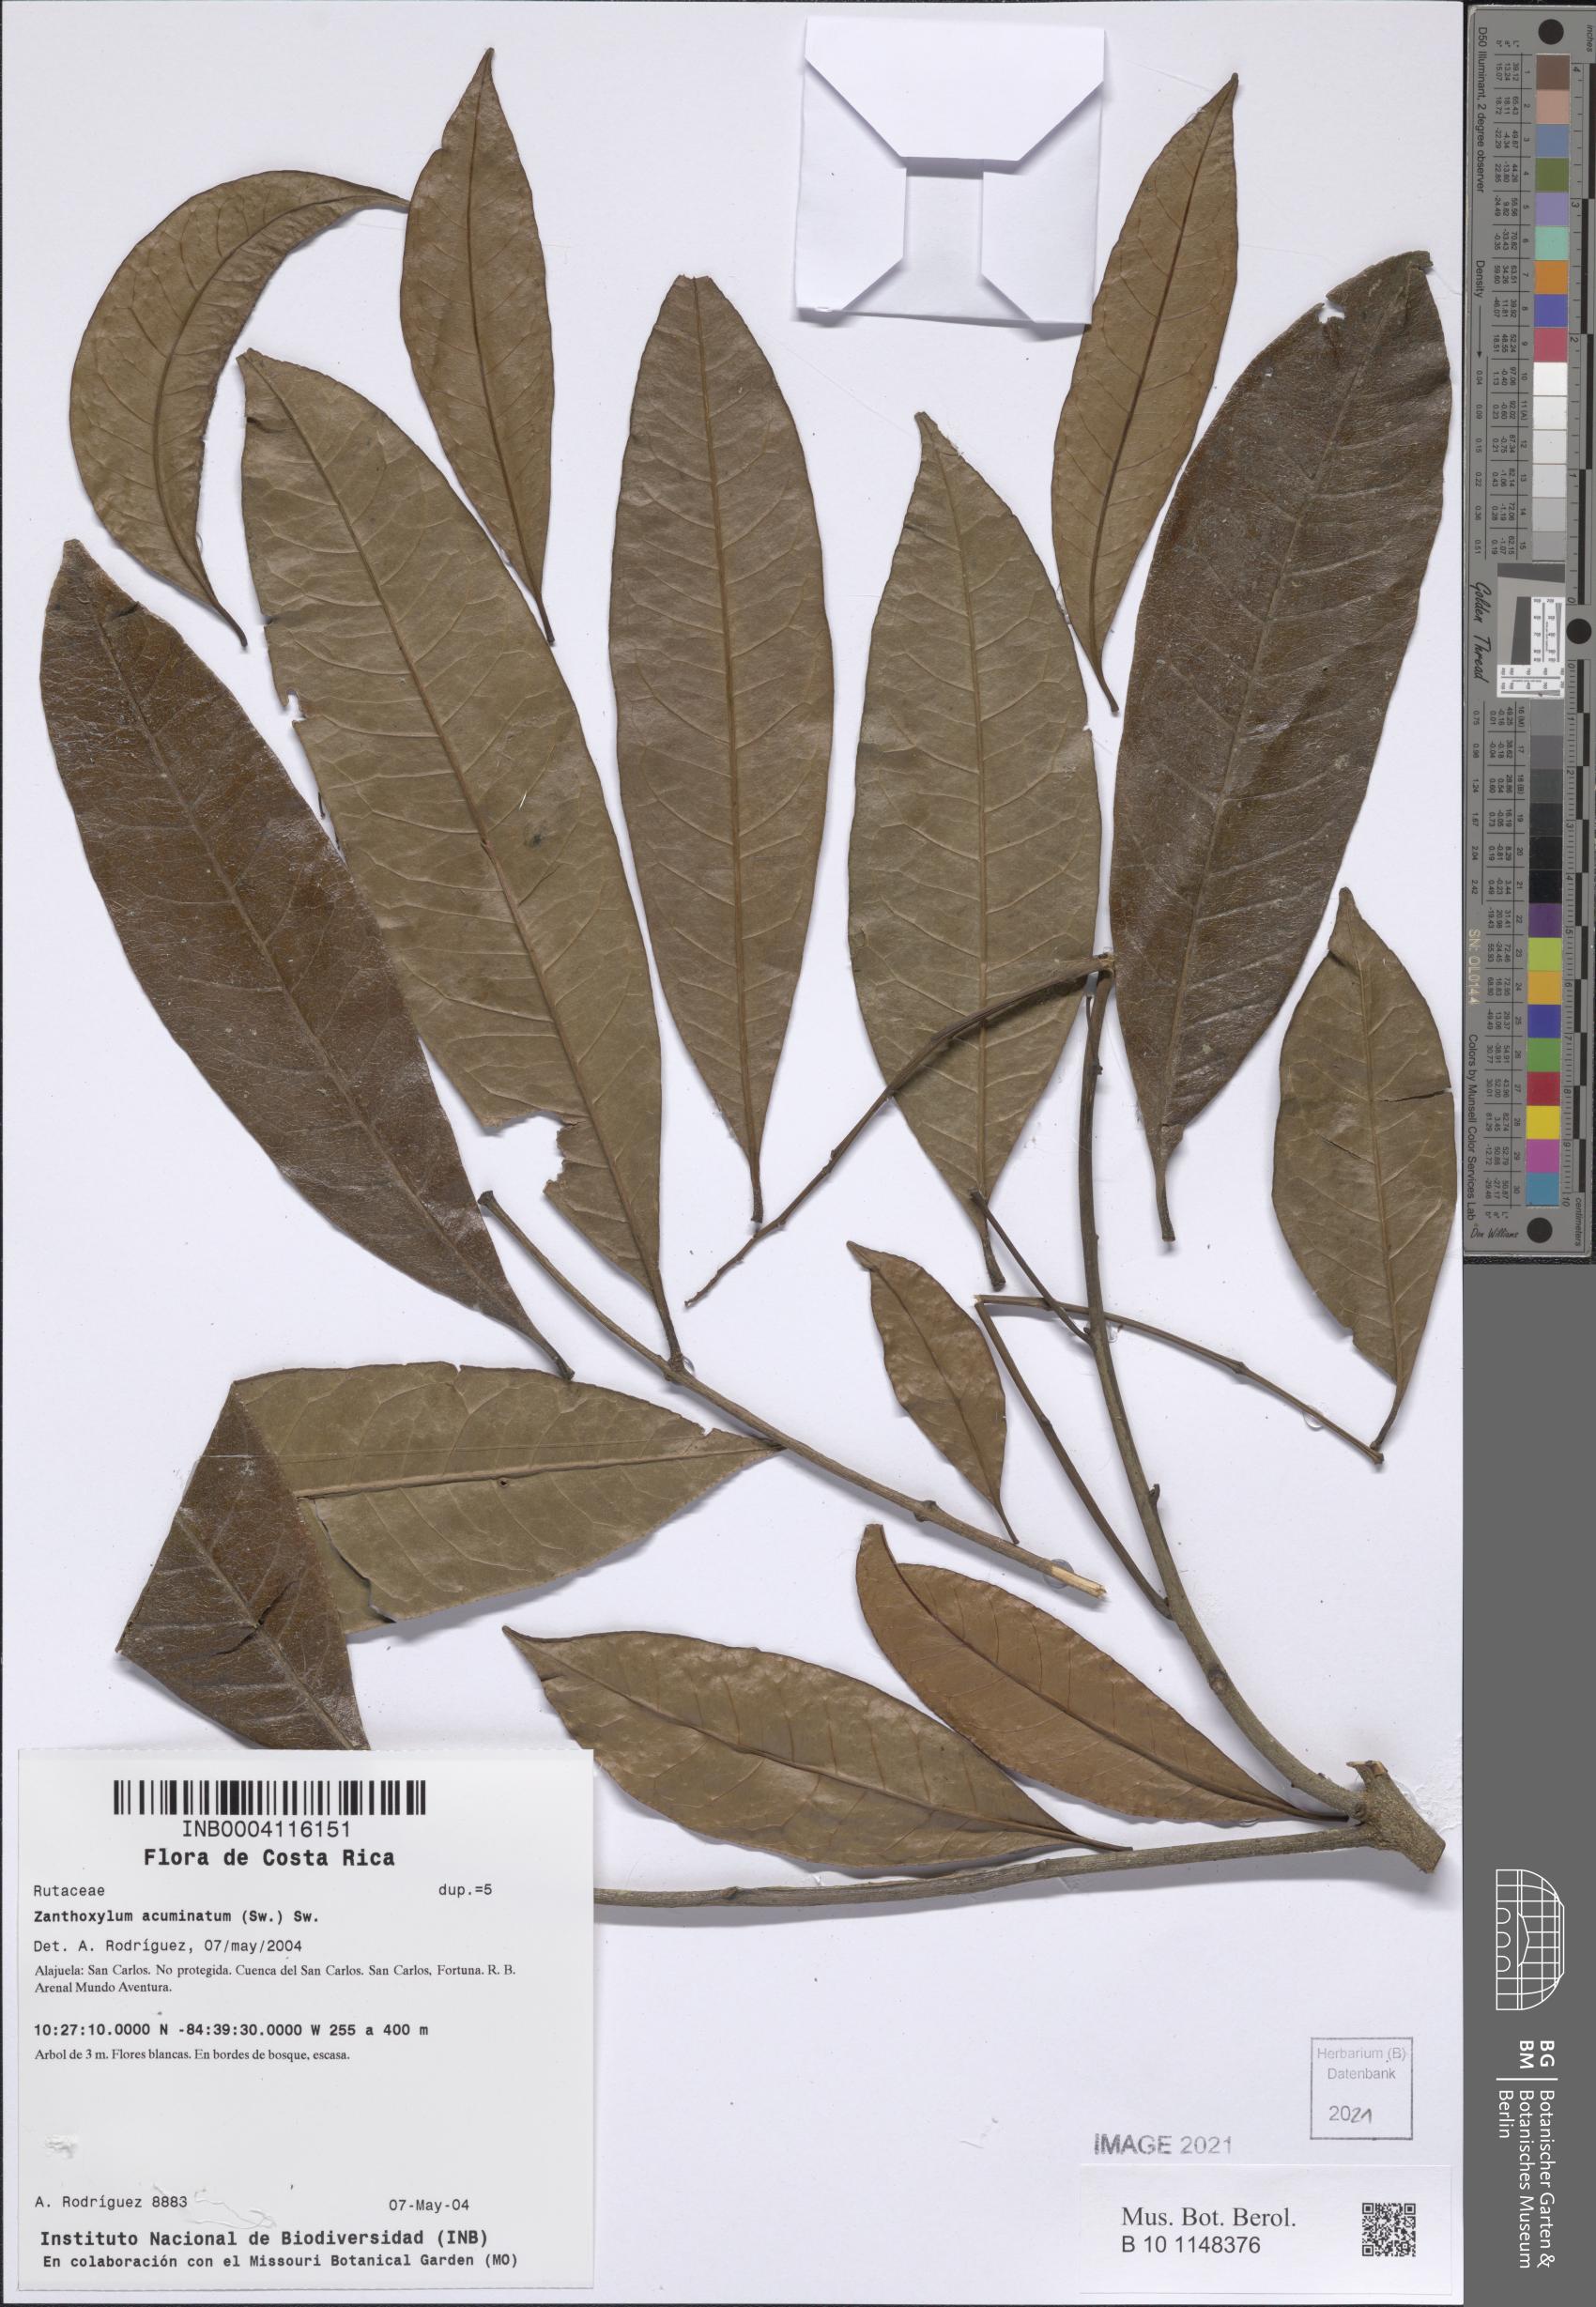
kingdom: Plantae
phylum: Tracheophyta
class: Magnoliopsida
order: Sapindales
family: Rutaceae
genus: Zanthoxylum
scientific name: Zanthoxylum acuminatum
